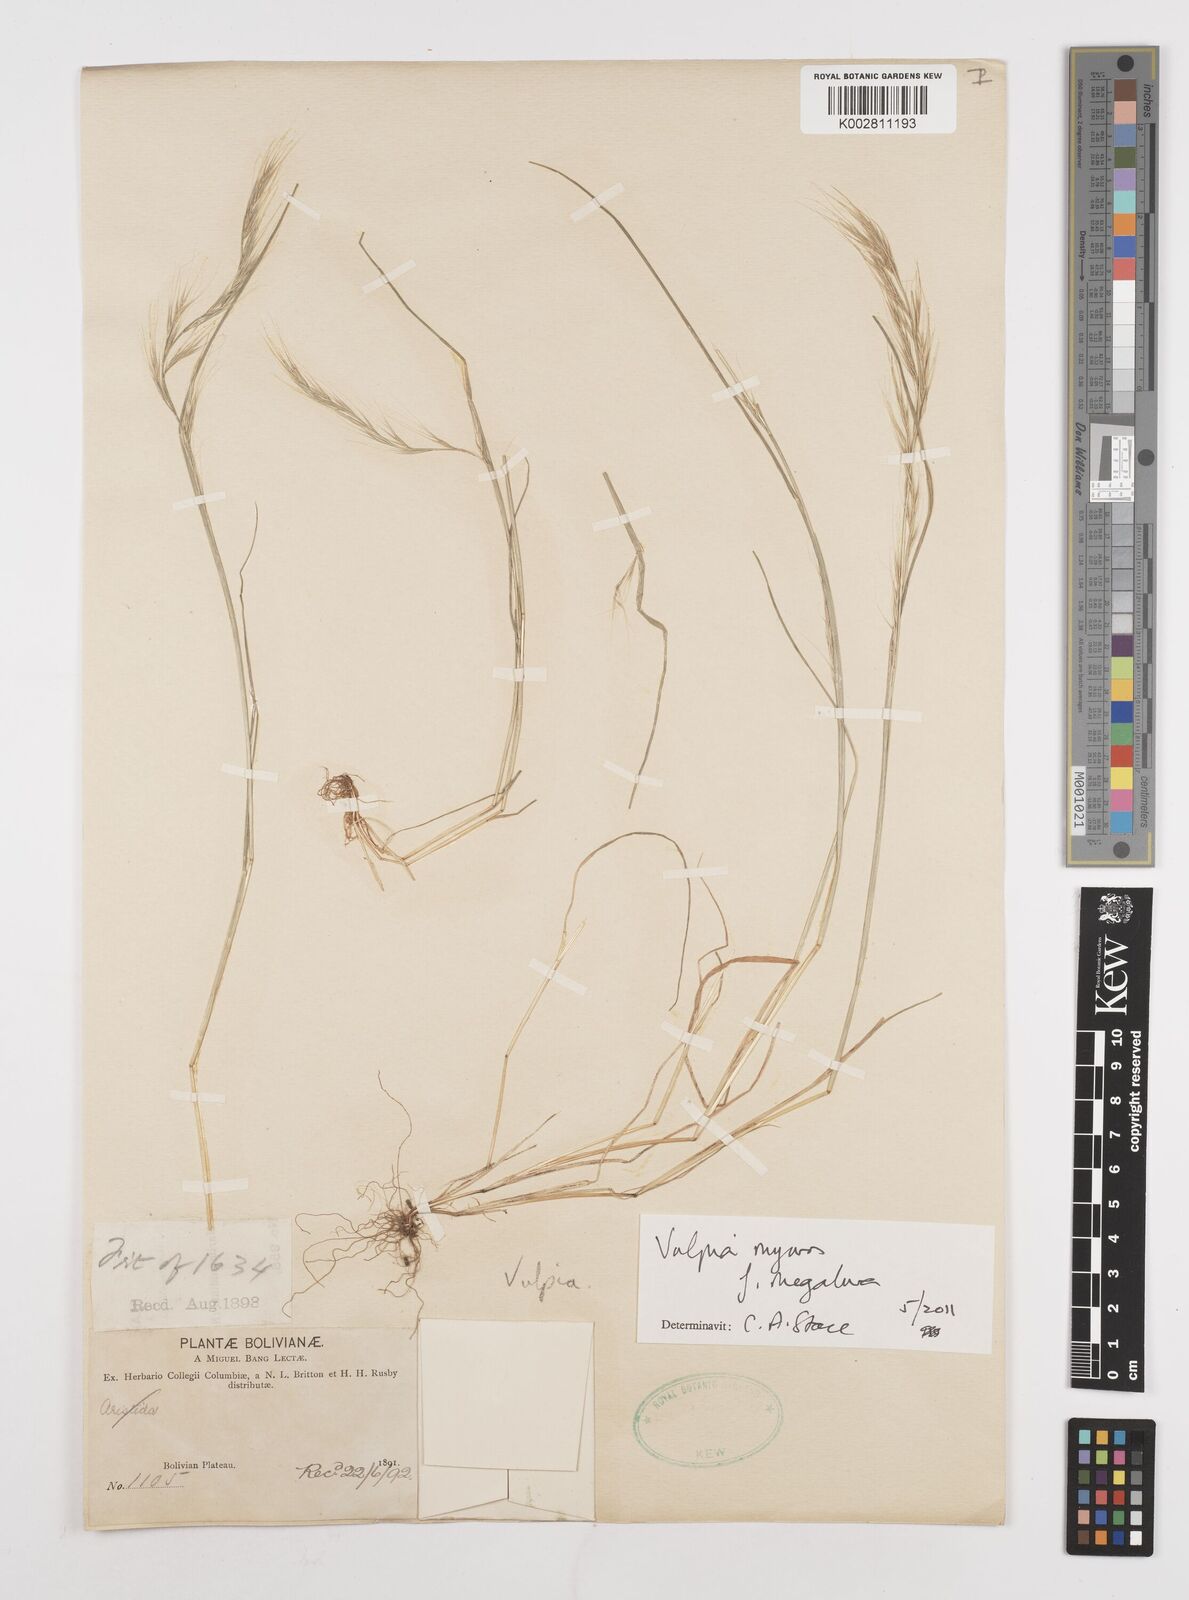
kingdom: Plantae
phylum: Tracheophyta
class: Liliopsida
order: Poales
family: Poaceae
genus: Festuca
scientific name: Festuca myuros
